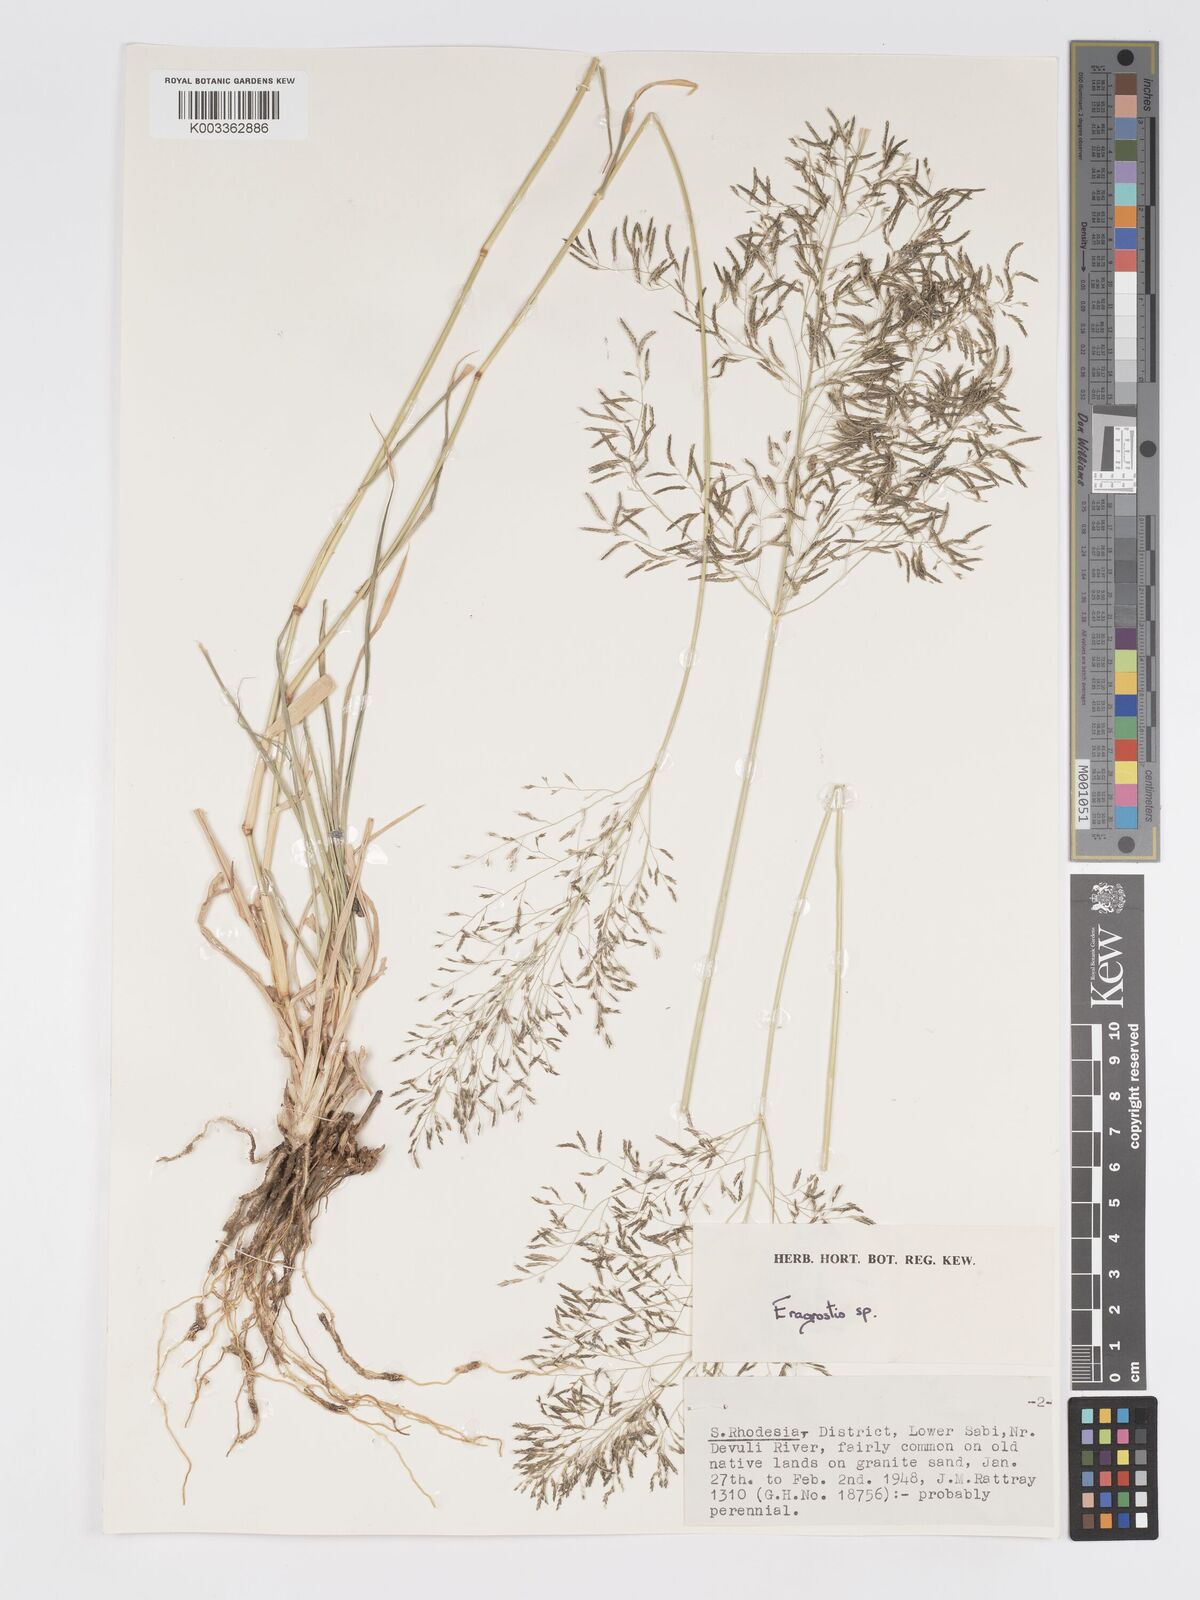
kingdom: Plantae
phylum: Tracheophyta
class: Liliopsida
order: Poales
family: Poaceae
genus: Eragrostis
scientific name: Eragrostis cylindriflora
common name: Cylinderflower lovegrass
